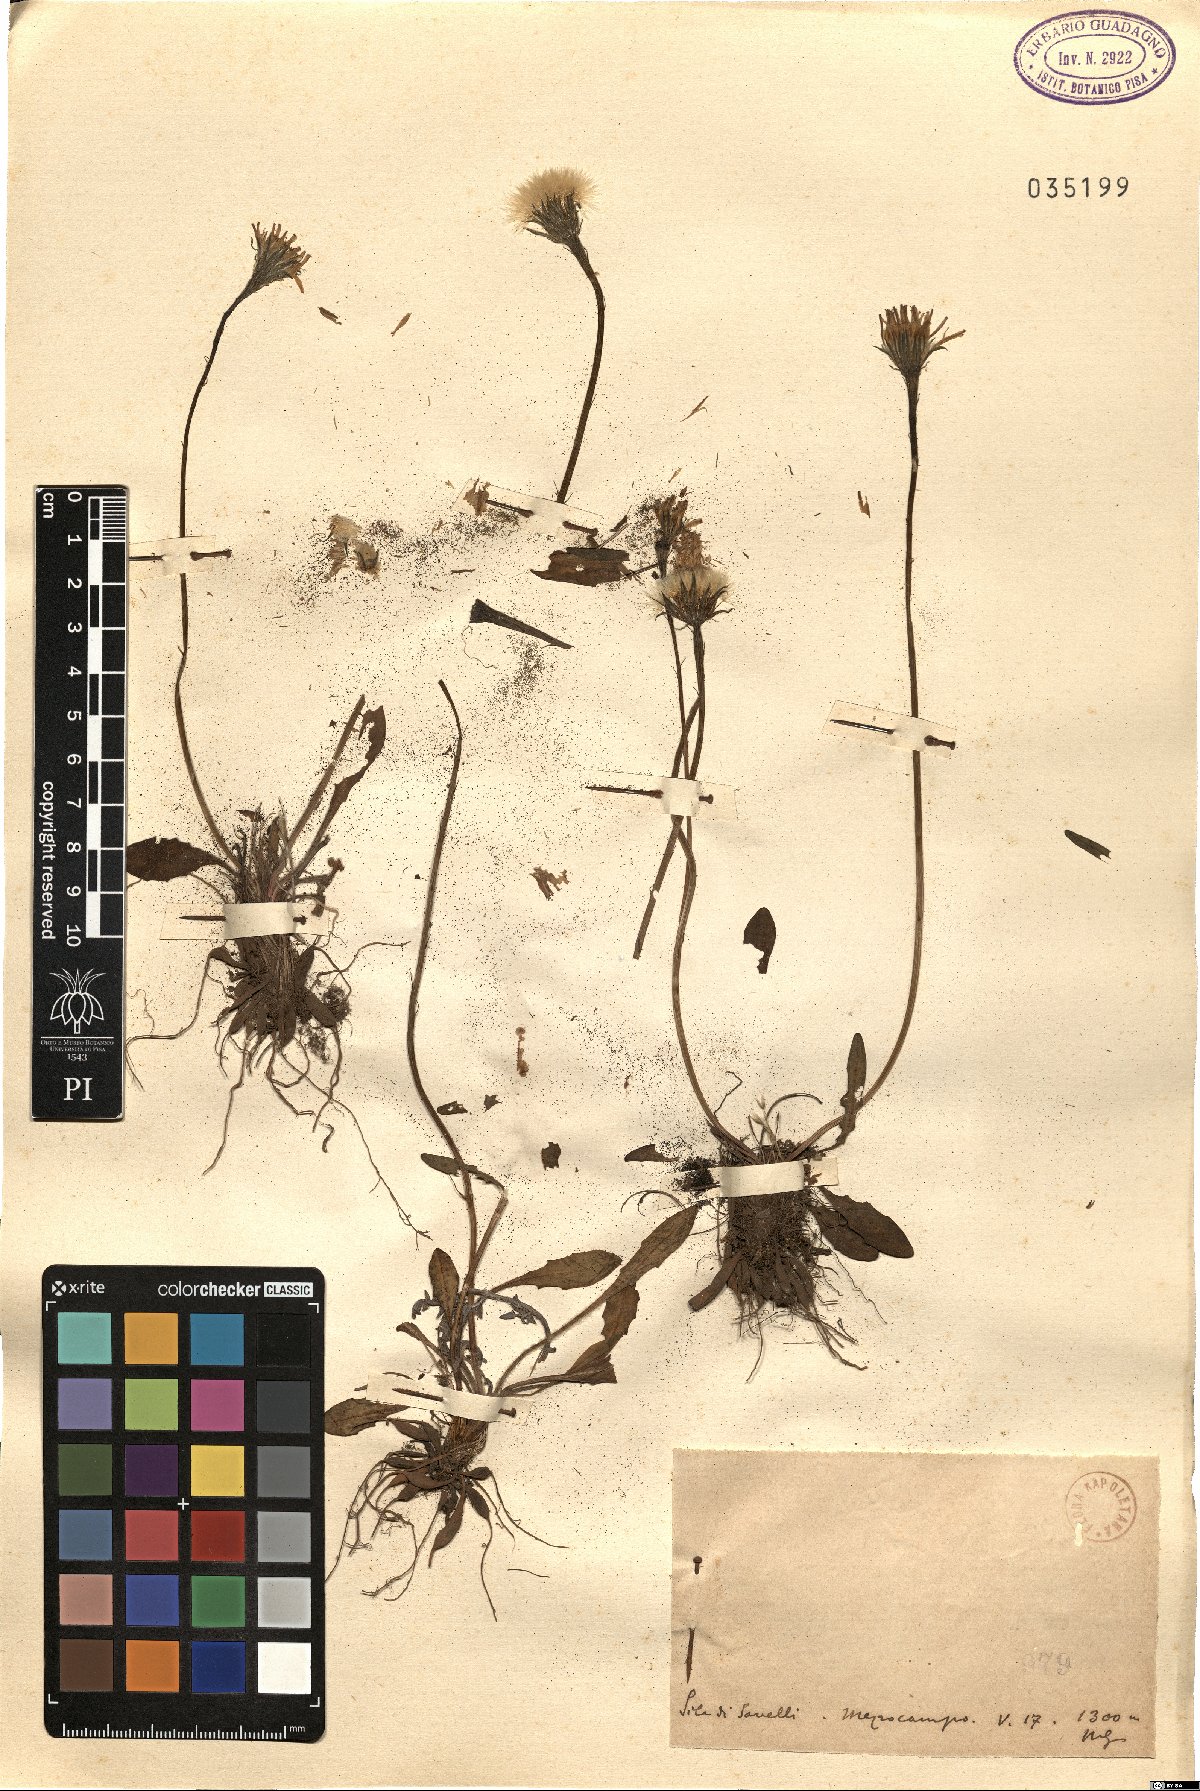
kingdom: Plantae
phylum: Tracheophyta
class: Magnoliopsida
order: Asterales
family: Asteraceae
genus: Thrincia
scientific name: Thrincia
